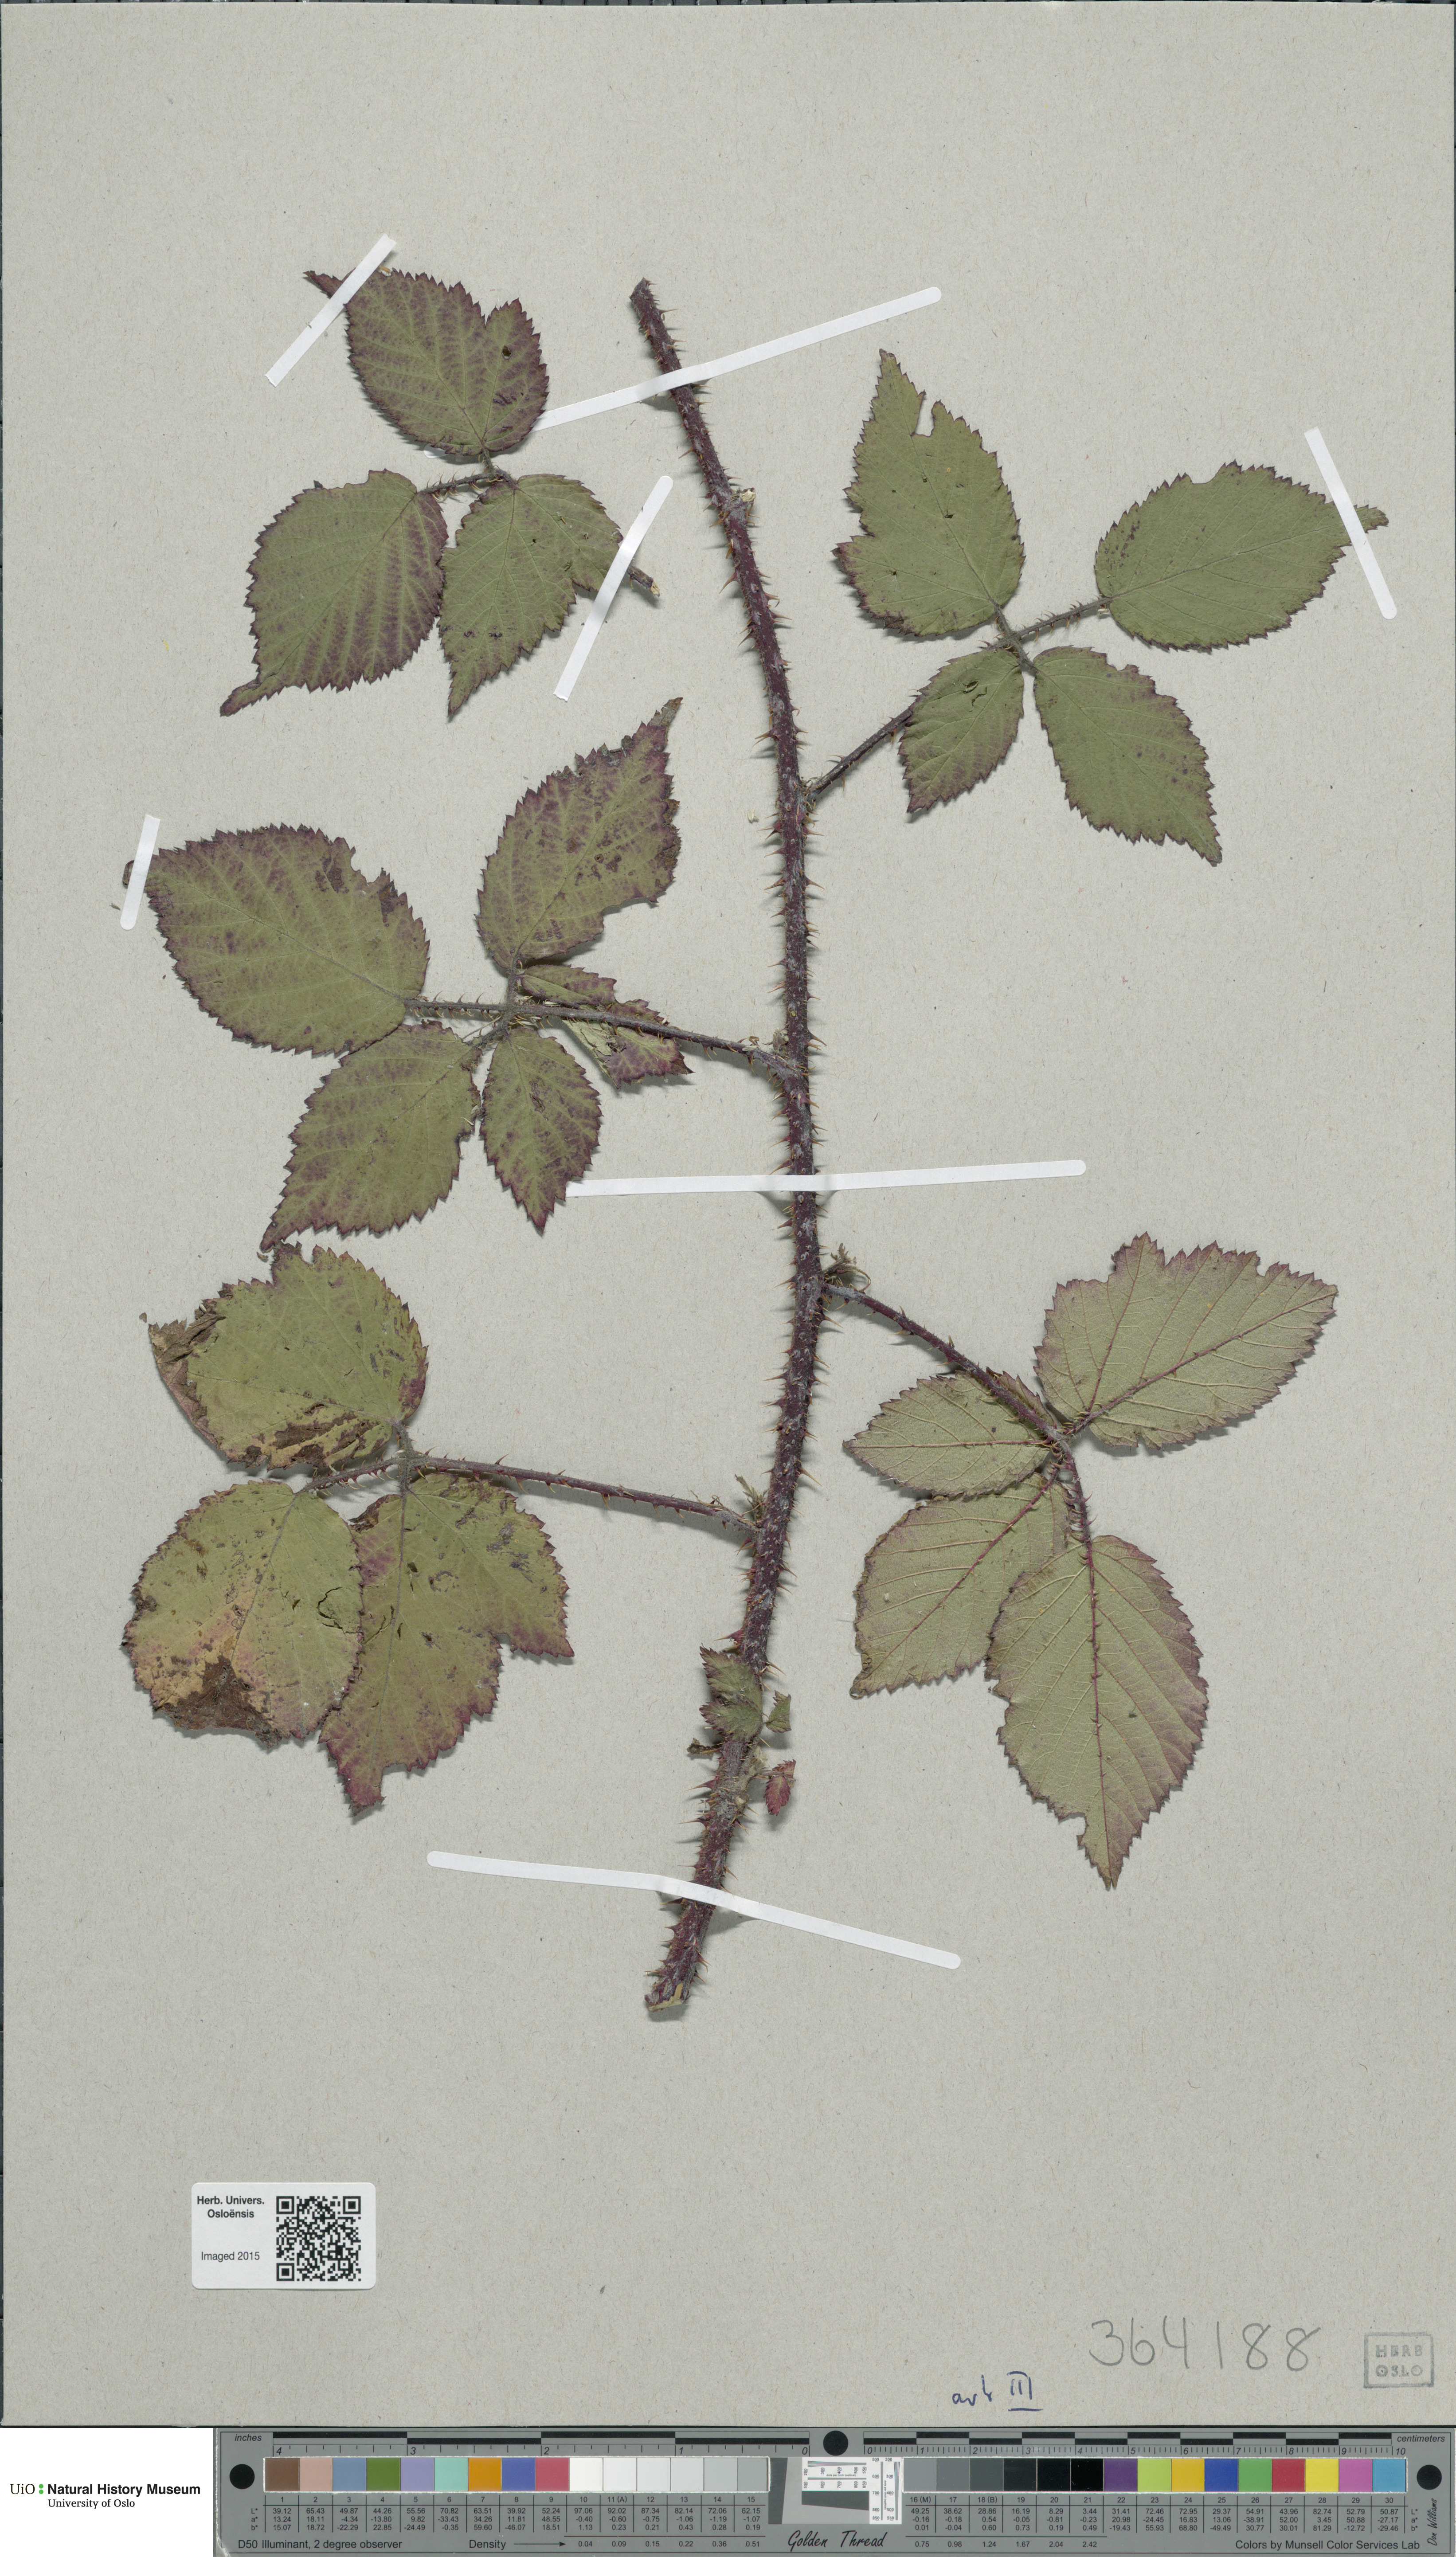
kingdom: Plantae
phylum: Tracheophyta
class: Magnoliopsida
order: Rosales
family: Rosaceae
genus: Rubus
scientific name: Rubus hartmanii
